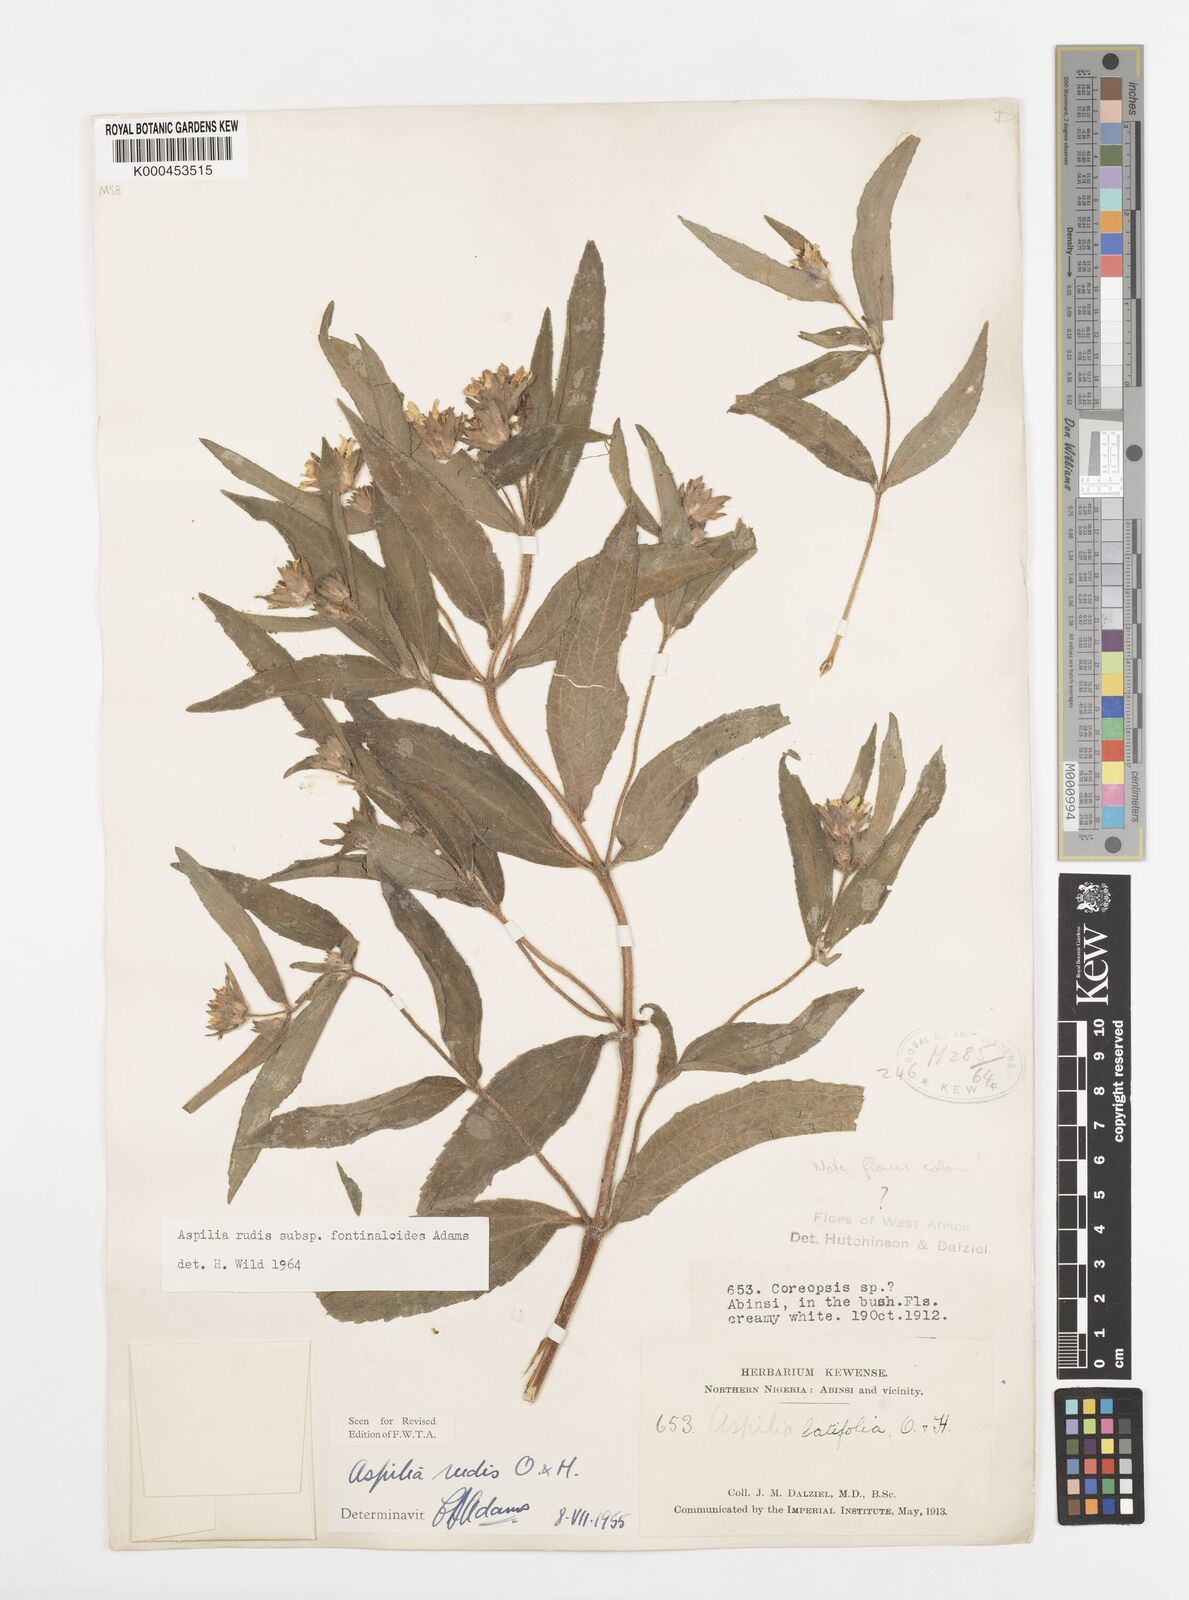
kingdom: Plantae
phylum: Tracheophyta
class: Magnoliopsida
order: Asterales
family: Asteraceae
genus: Aspilia
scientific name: Aspilia rudis
